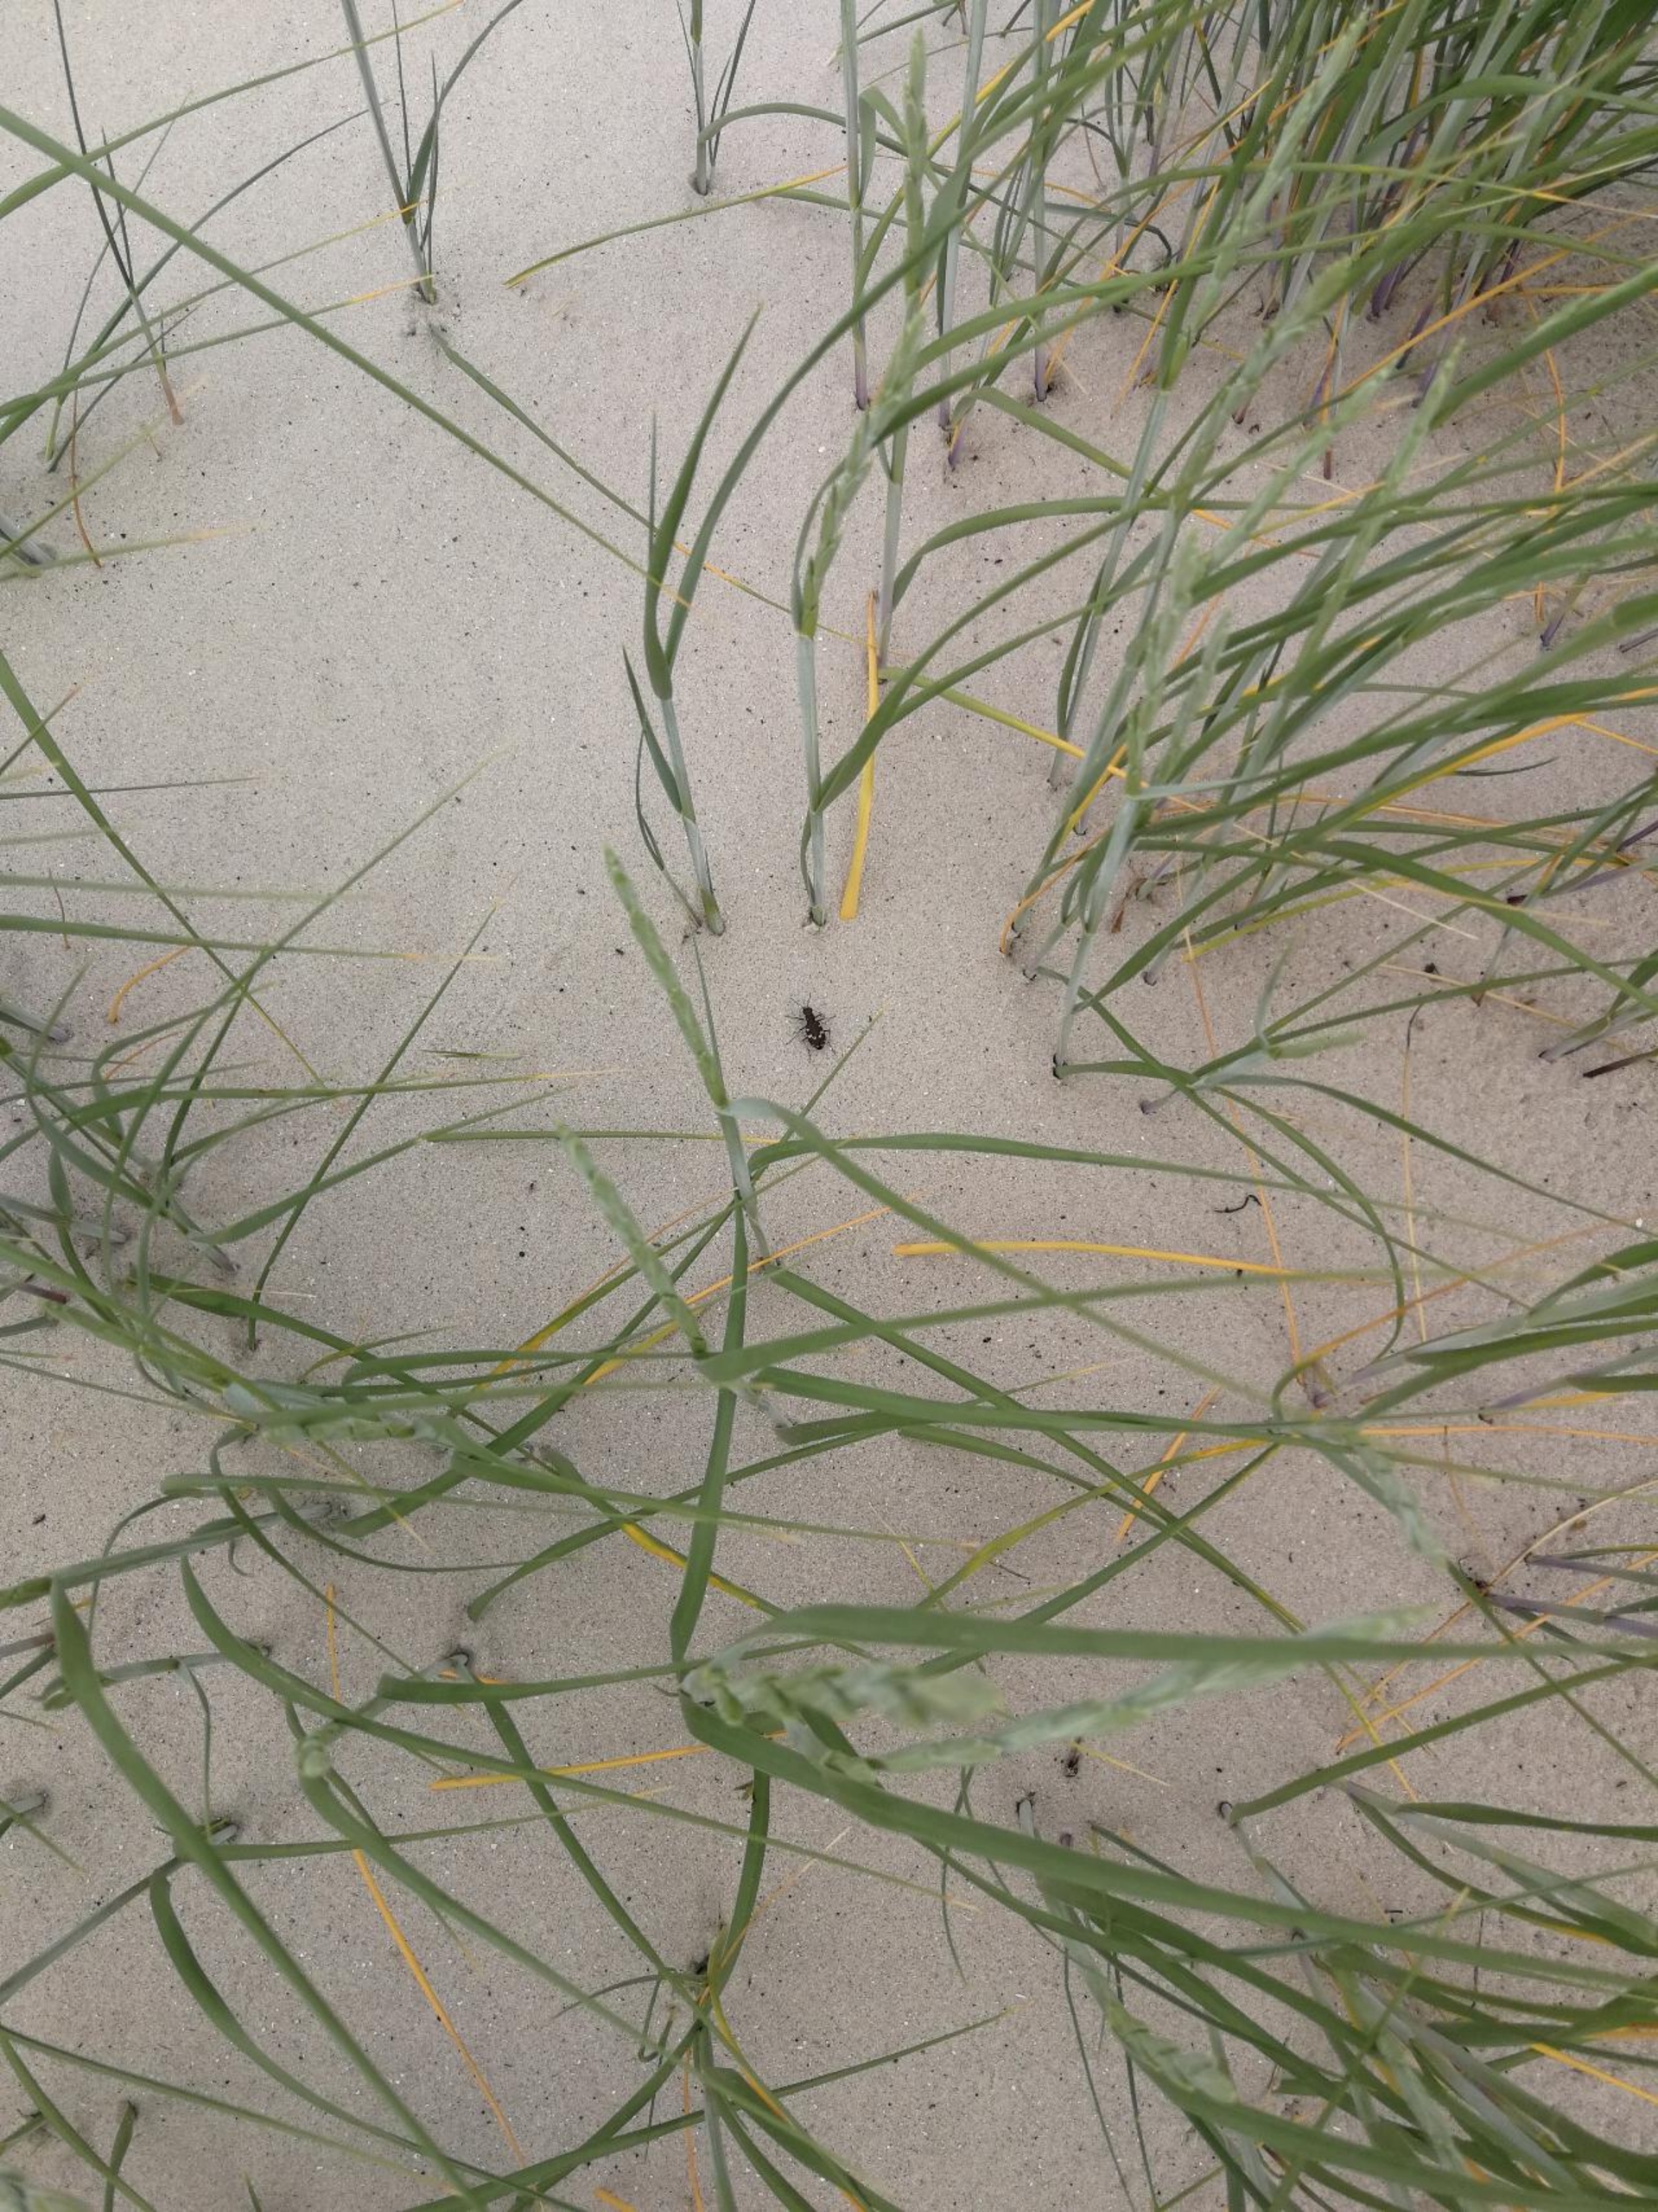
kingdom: Animalia
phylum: Arthropoda
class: Insecta
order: Coleoptera
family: Carabidae
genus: Cicindela
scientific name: Cicindela
